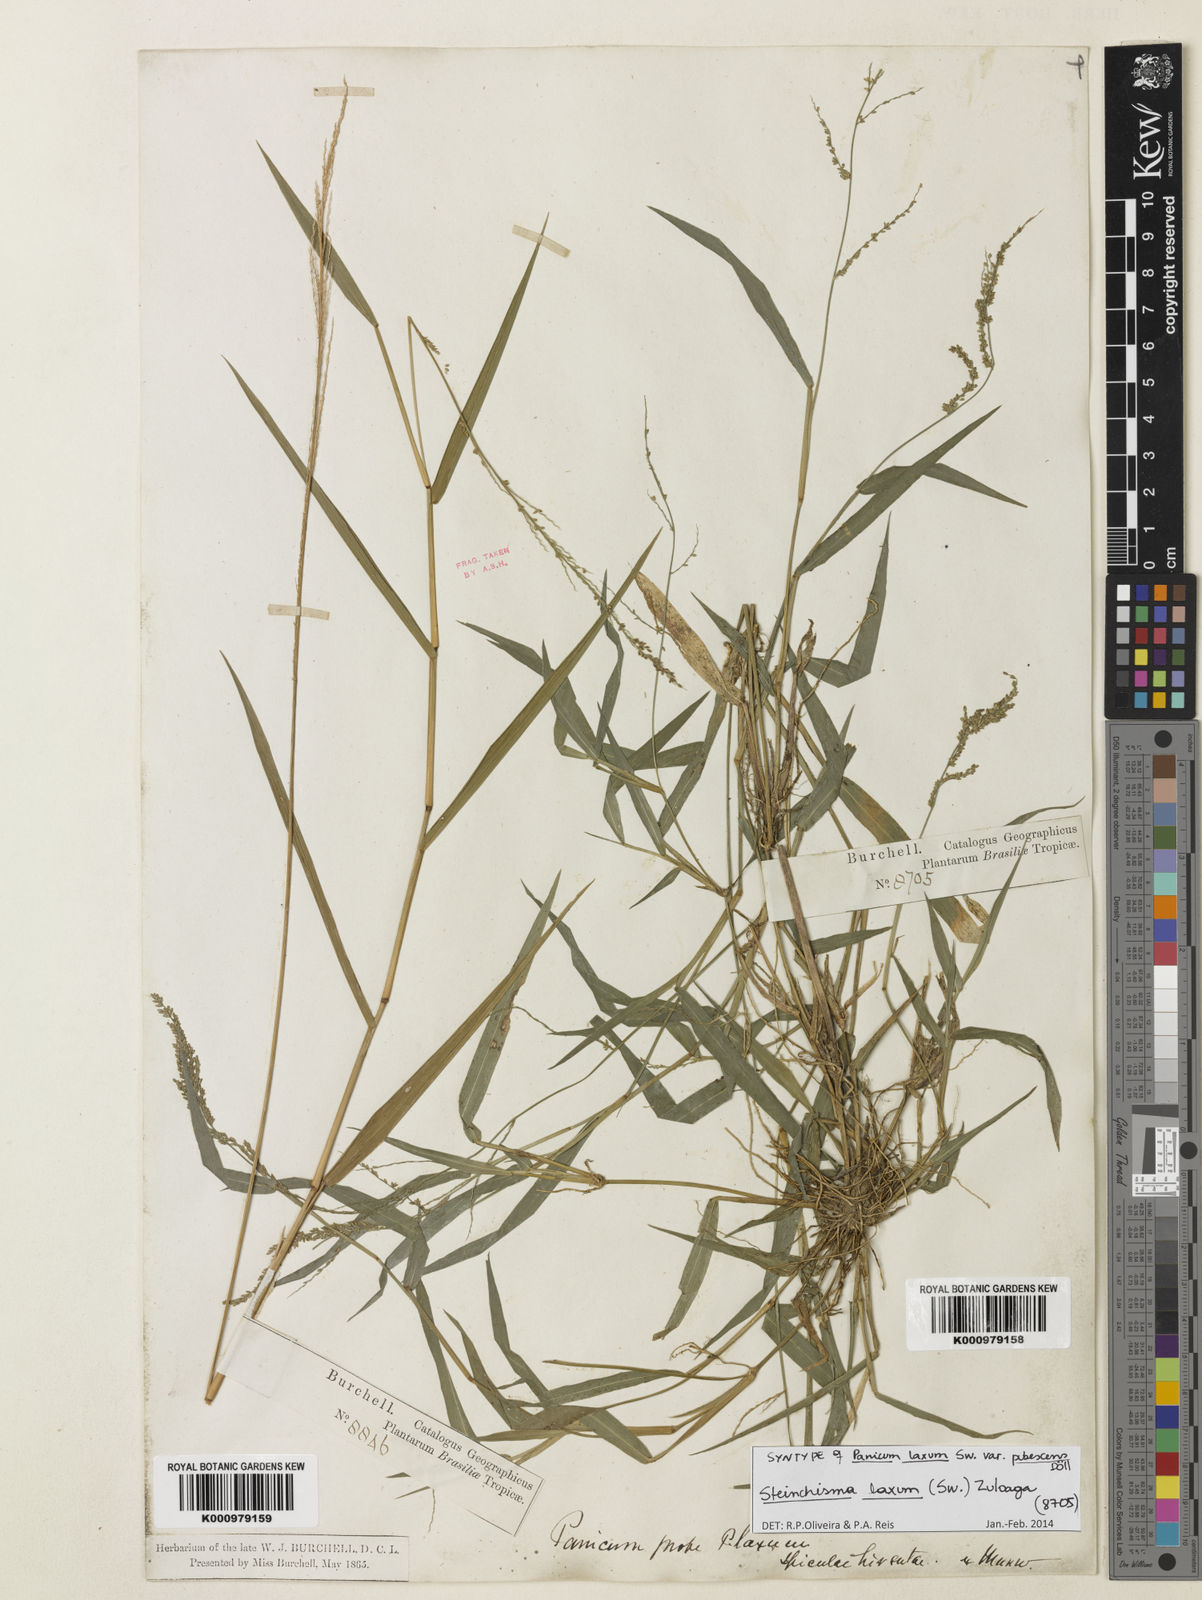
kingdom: Plantae
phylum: Tracheophyta
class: Liliopsida
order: Poales
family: Poaceae
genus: Steinchisma
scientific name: Steinchisma laxum
